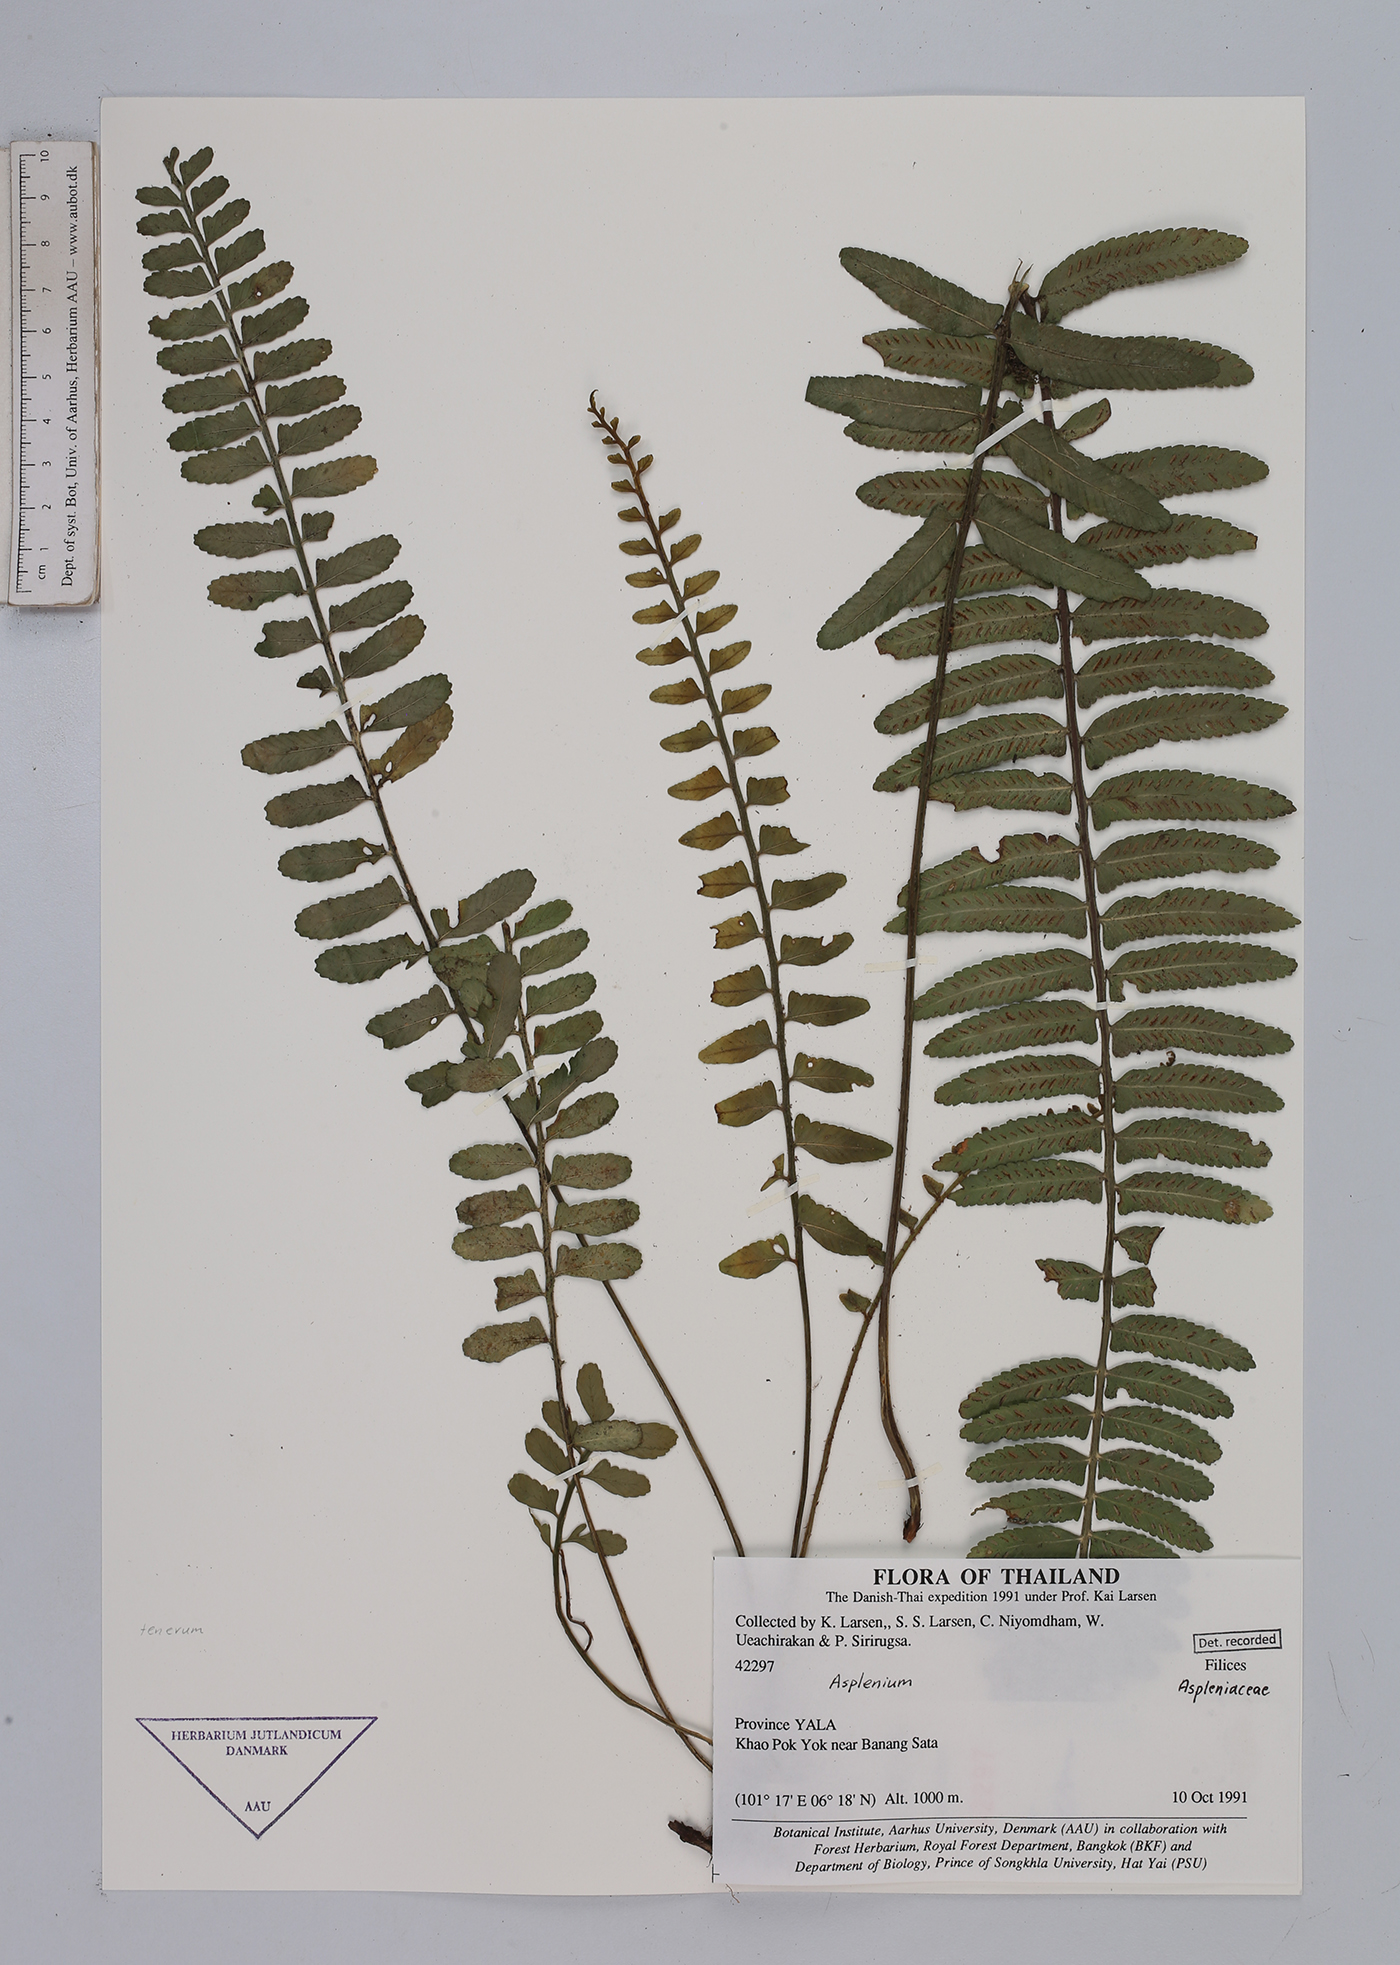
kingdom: Plantae
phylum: Tracheophyta
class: Polypodiopsida
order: Polypodiales
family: Aspleniaceae
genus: Asplenium
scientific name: Asplenium
